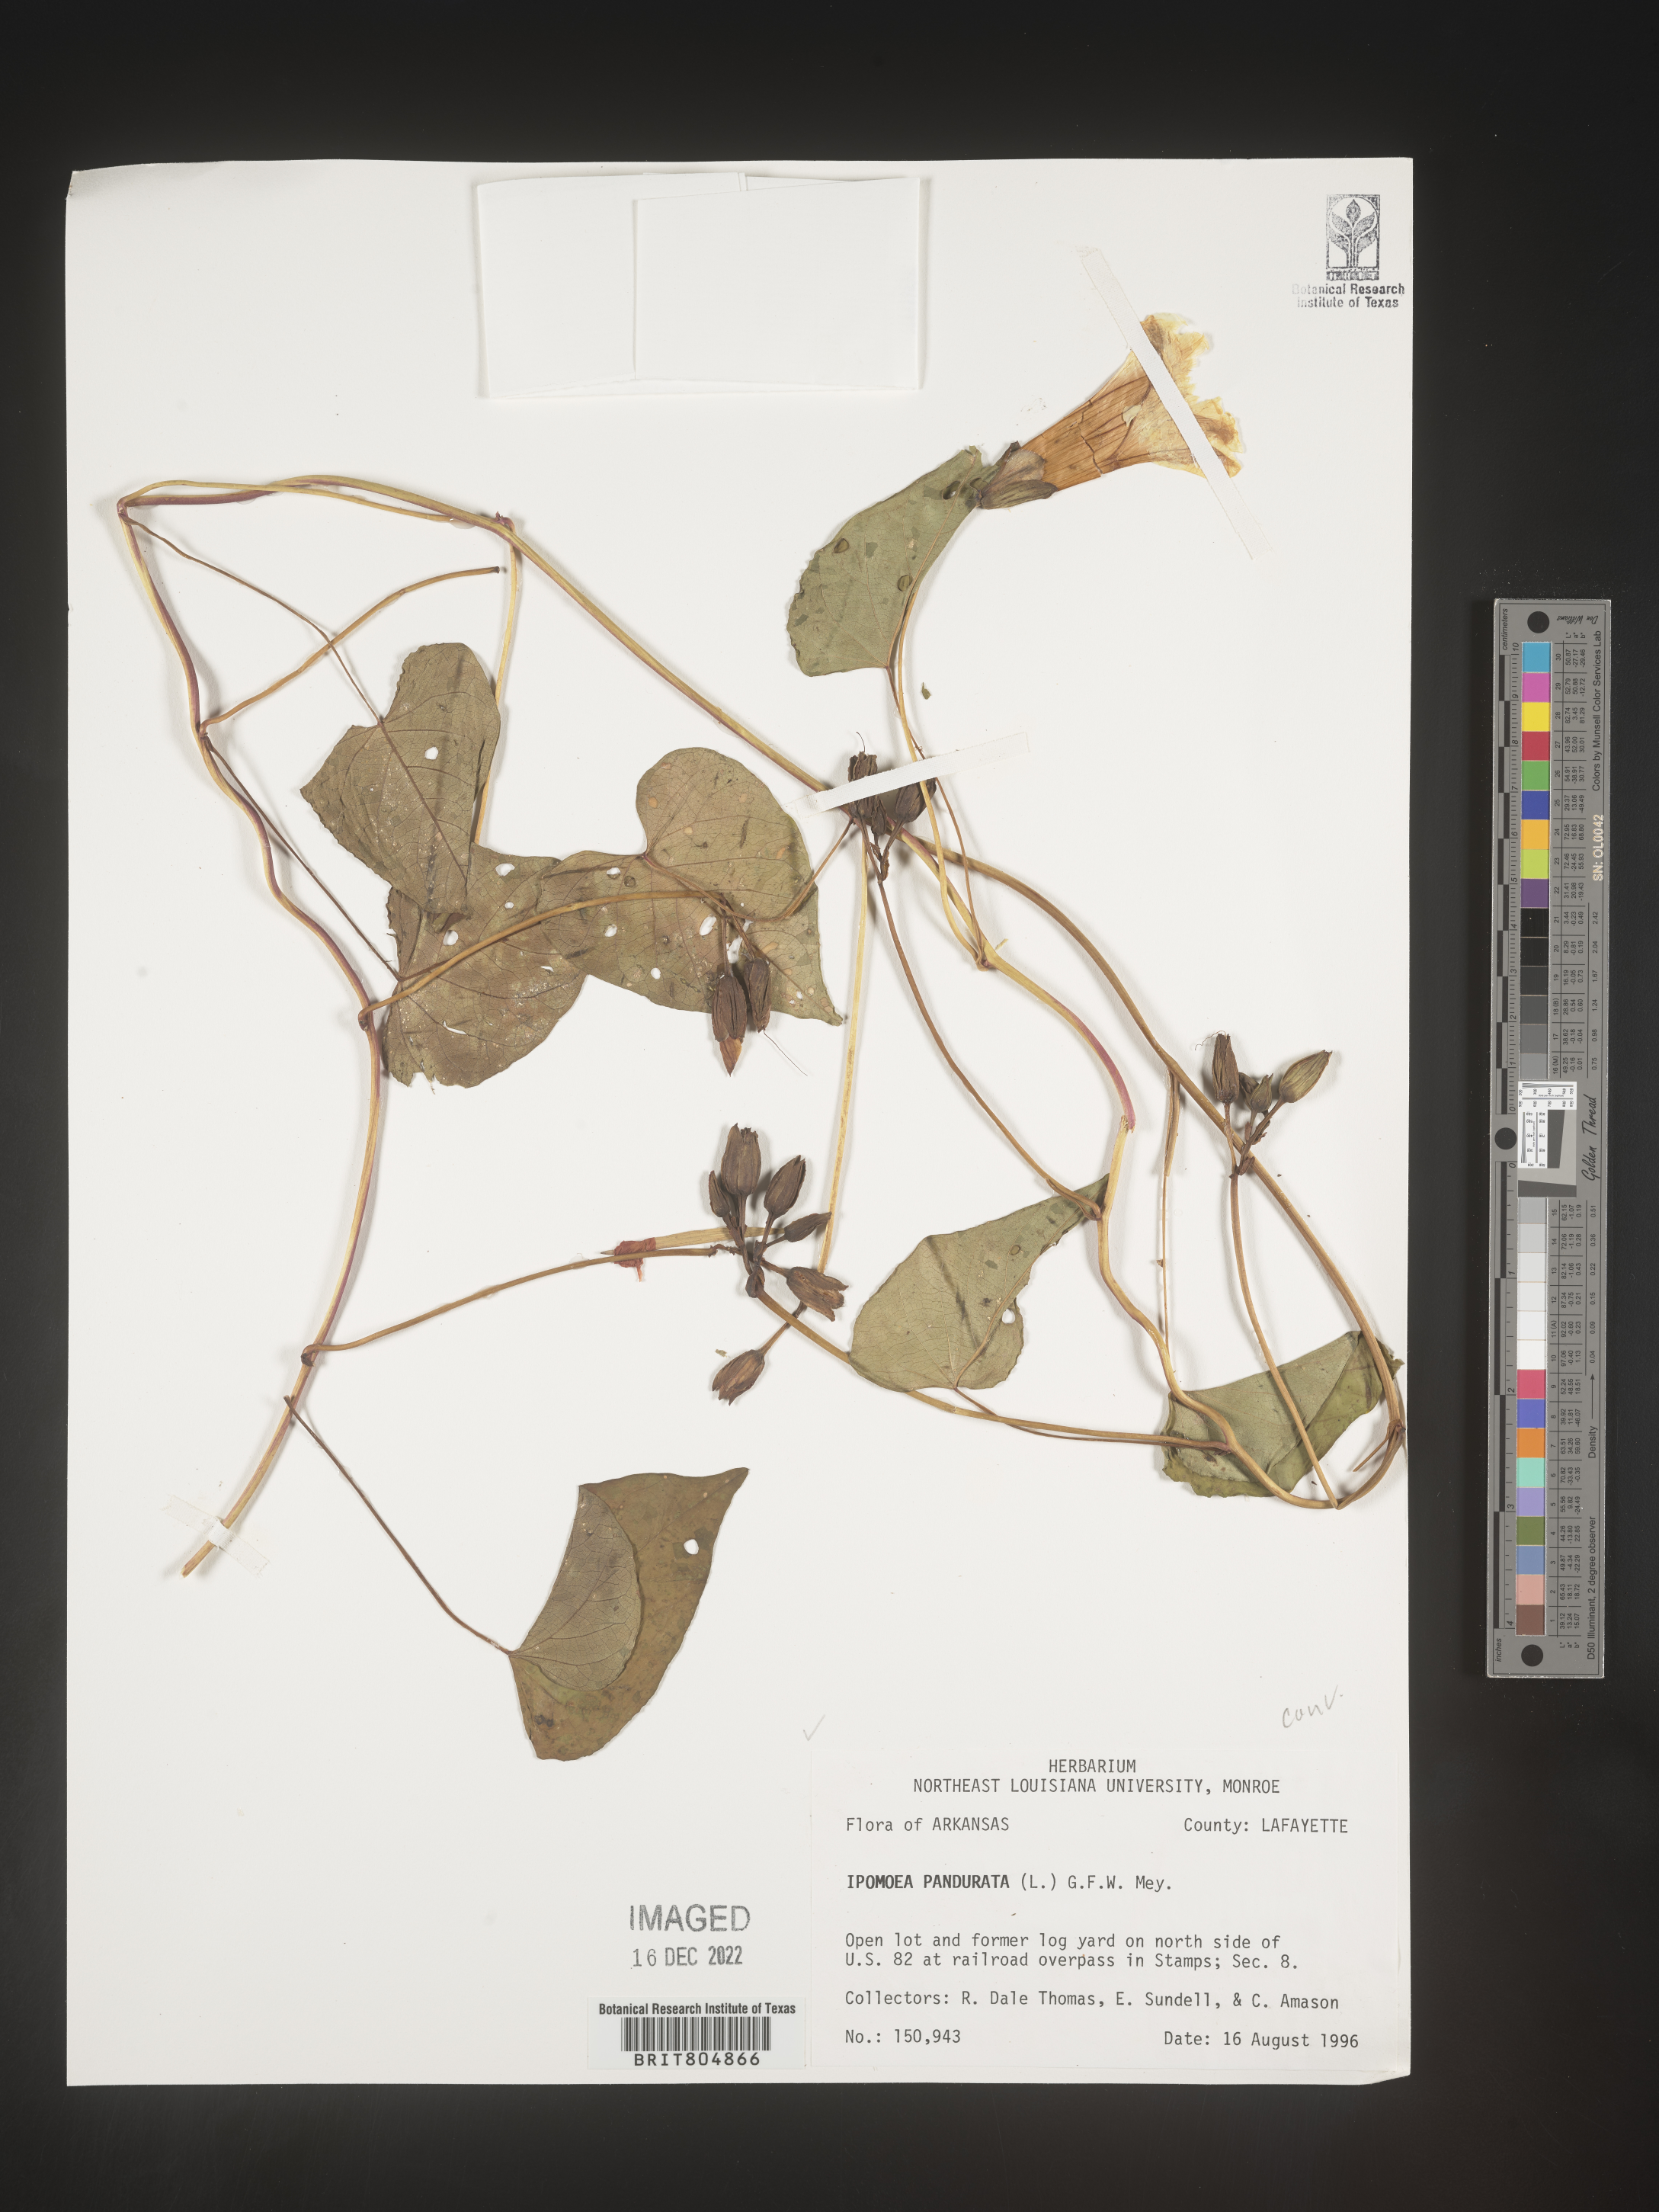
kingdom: Plantae
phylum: Tracheophyta
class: Magnoliopsida
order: Solanales
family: Convolvulaceae
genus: Ipomoea
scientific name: Ipomoea pandurata
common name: Man-of-the-earth
